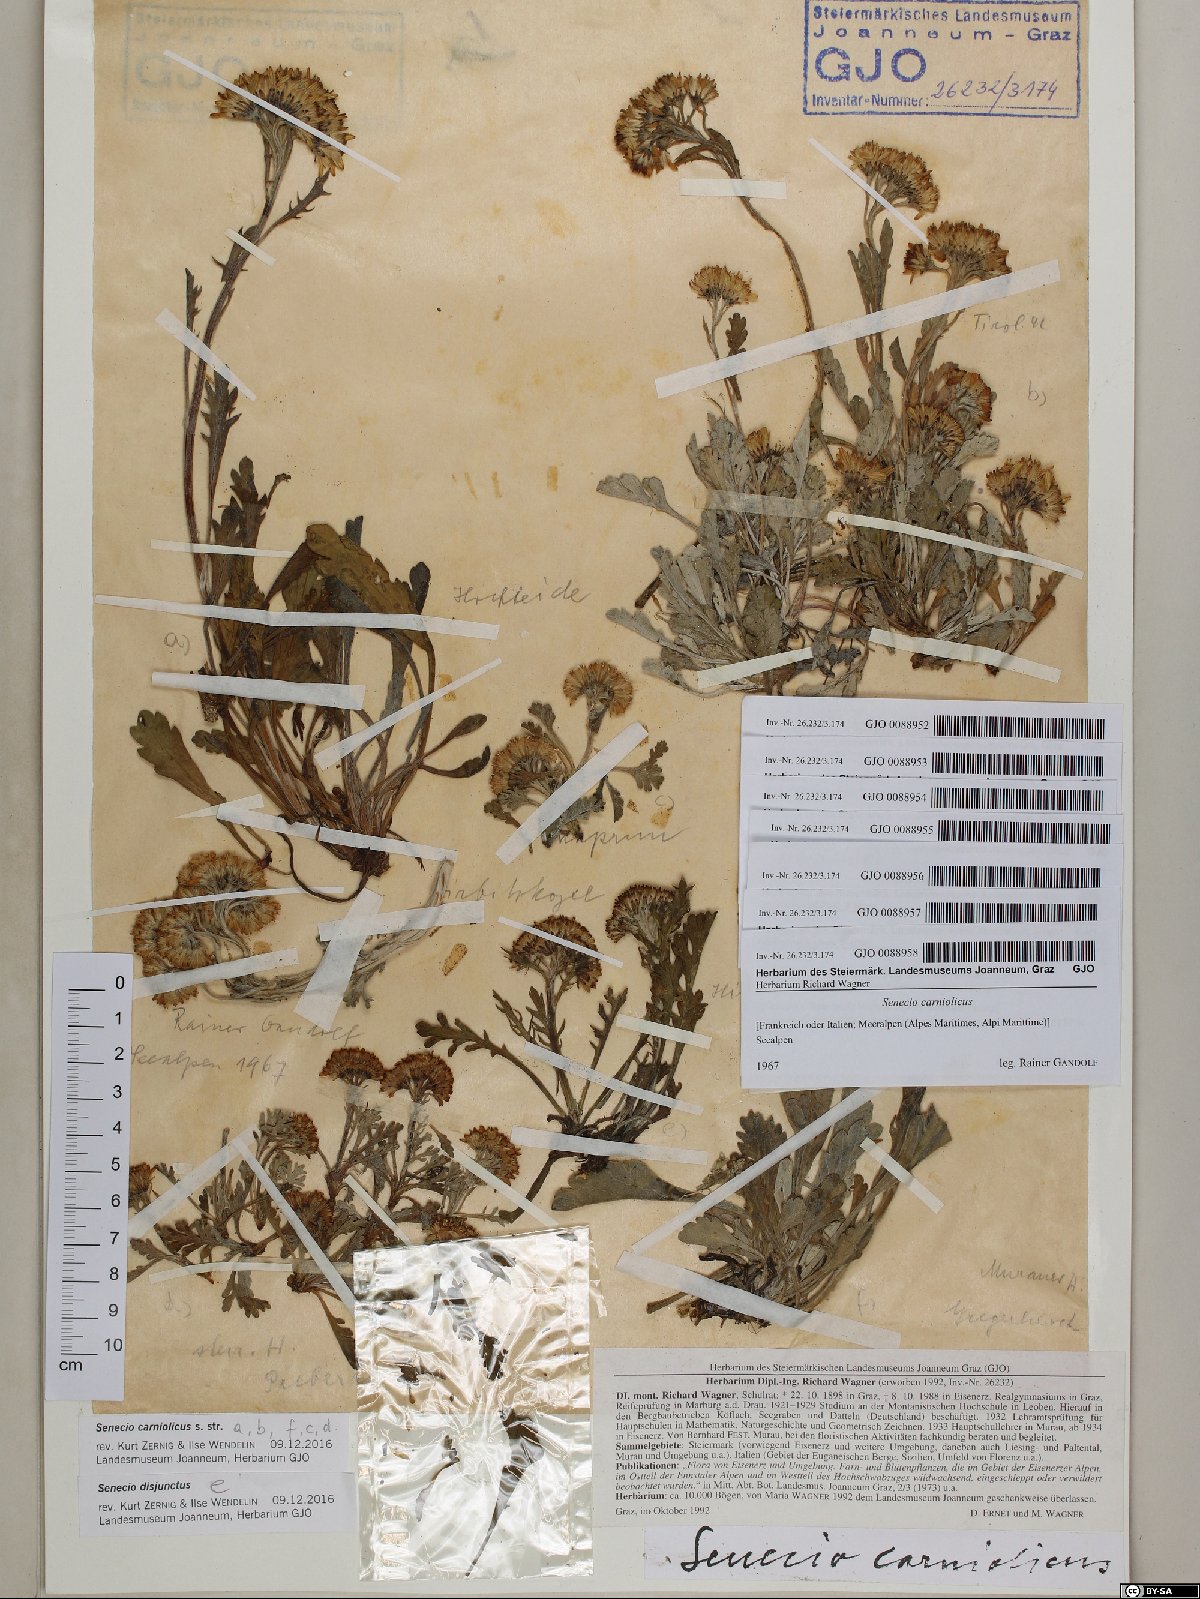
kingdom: Plantae
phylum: Tracheophyta
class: Magnoliopsida
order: Asterales
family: Asteraceae
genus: Jacobaea
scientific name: Jacobaea carniolica
